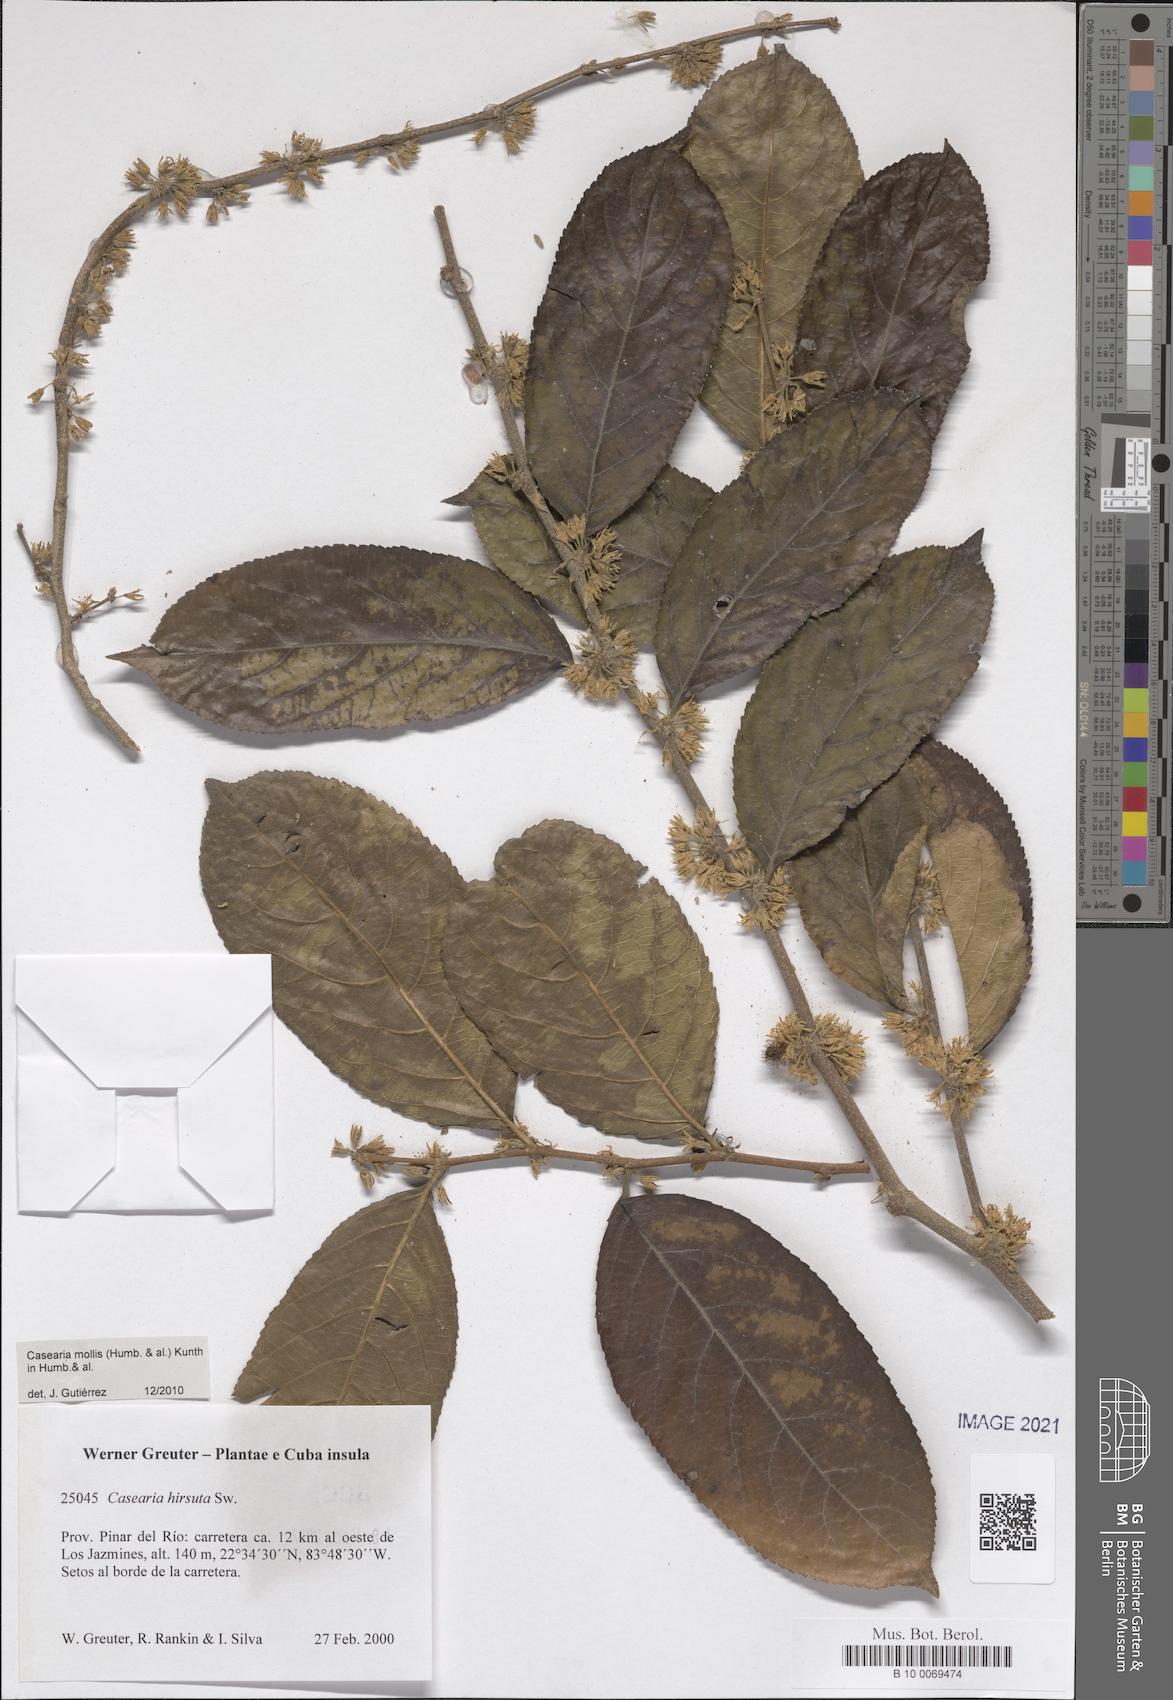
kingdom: Plantae
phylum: Tracheophyta
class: Magnoliopsida
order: Malpighiales
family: Salicaceae
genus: Casearia
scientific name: Casearia mollis
